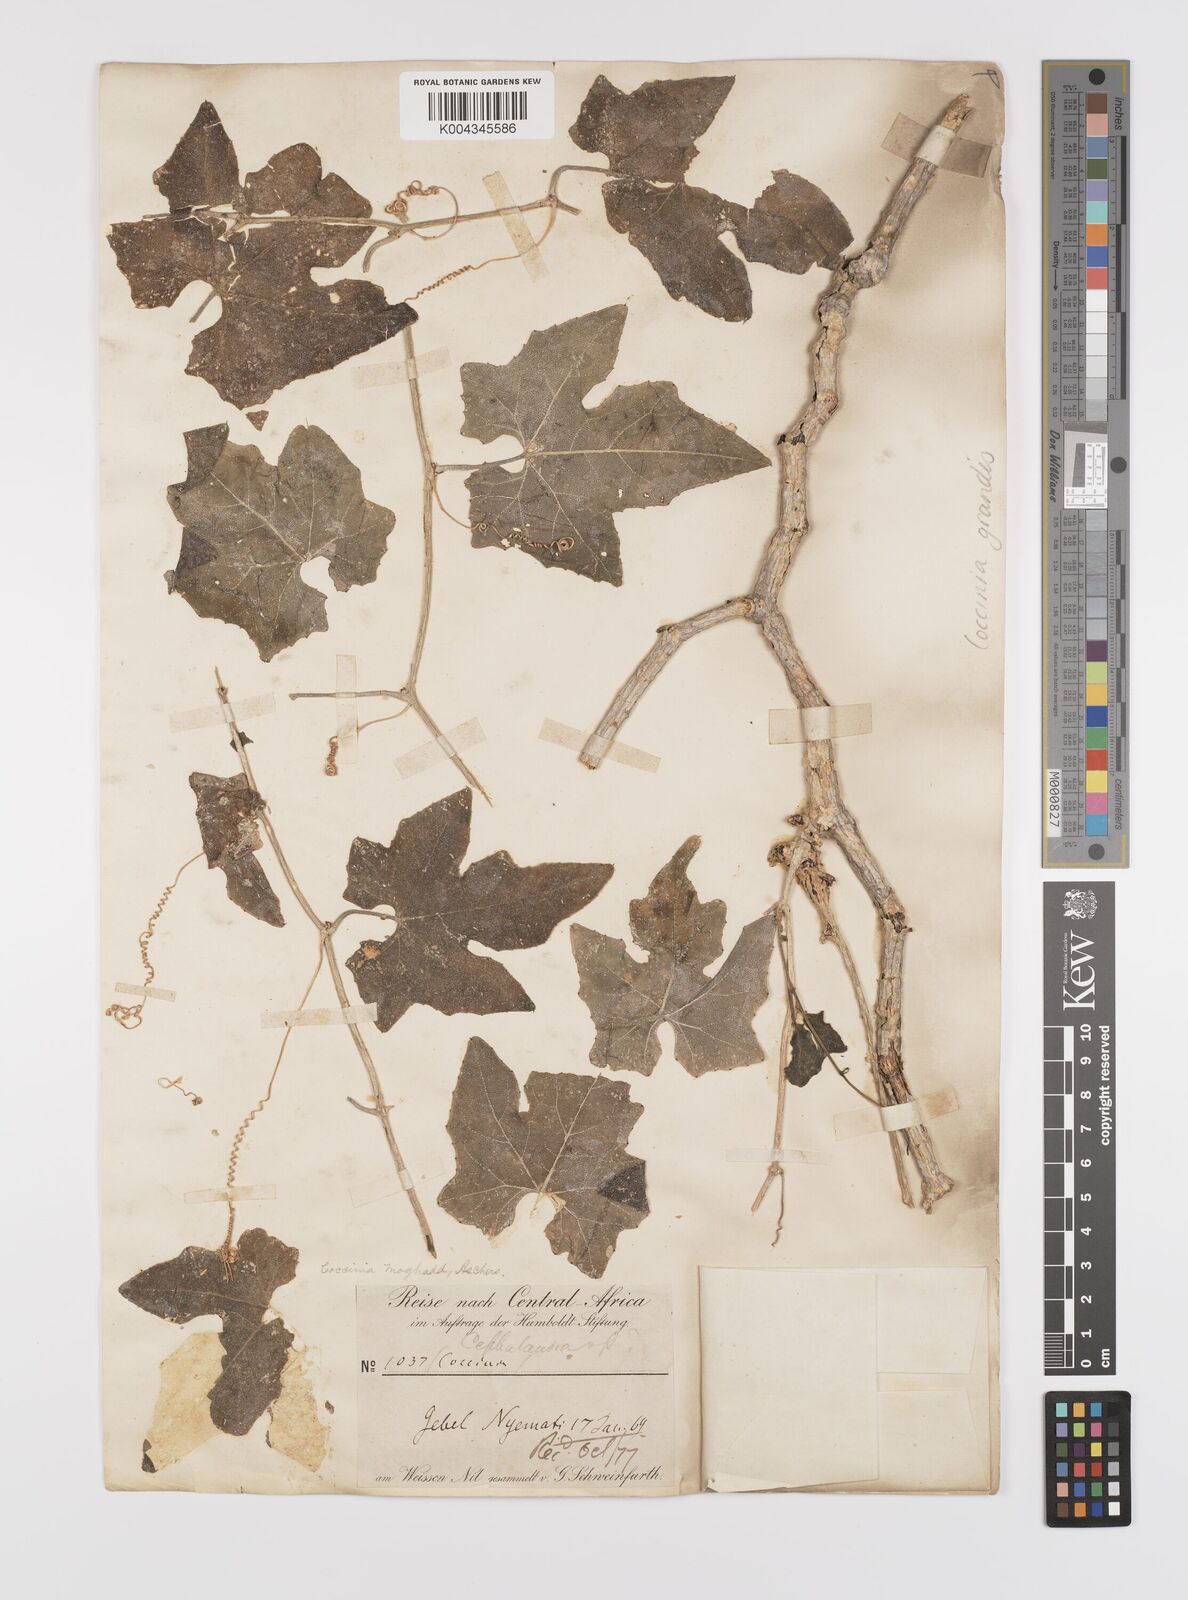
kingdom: Plantae
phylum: Tracheophyta
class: Magnoliopsida
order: Cucurbitales
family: Cucurbitaceae
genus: Coccinia
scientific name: Coccinia grandis
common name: Ivy gourd
